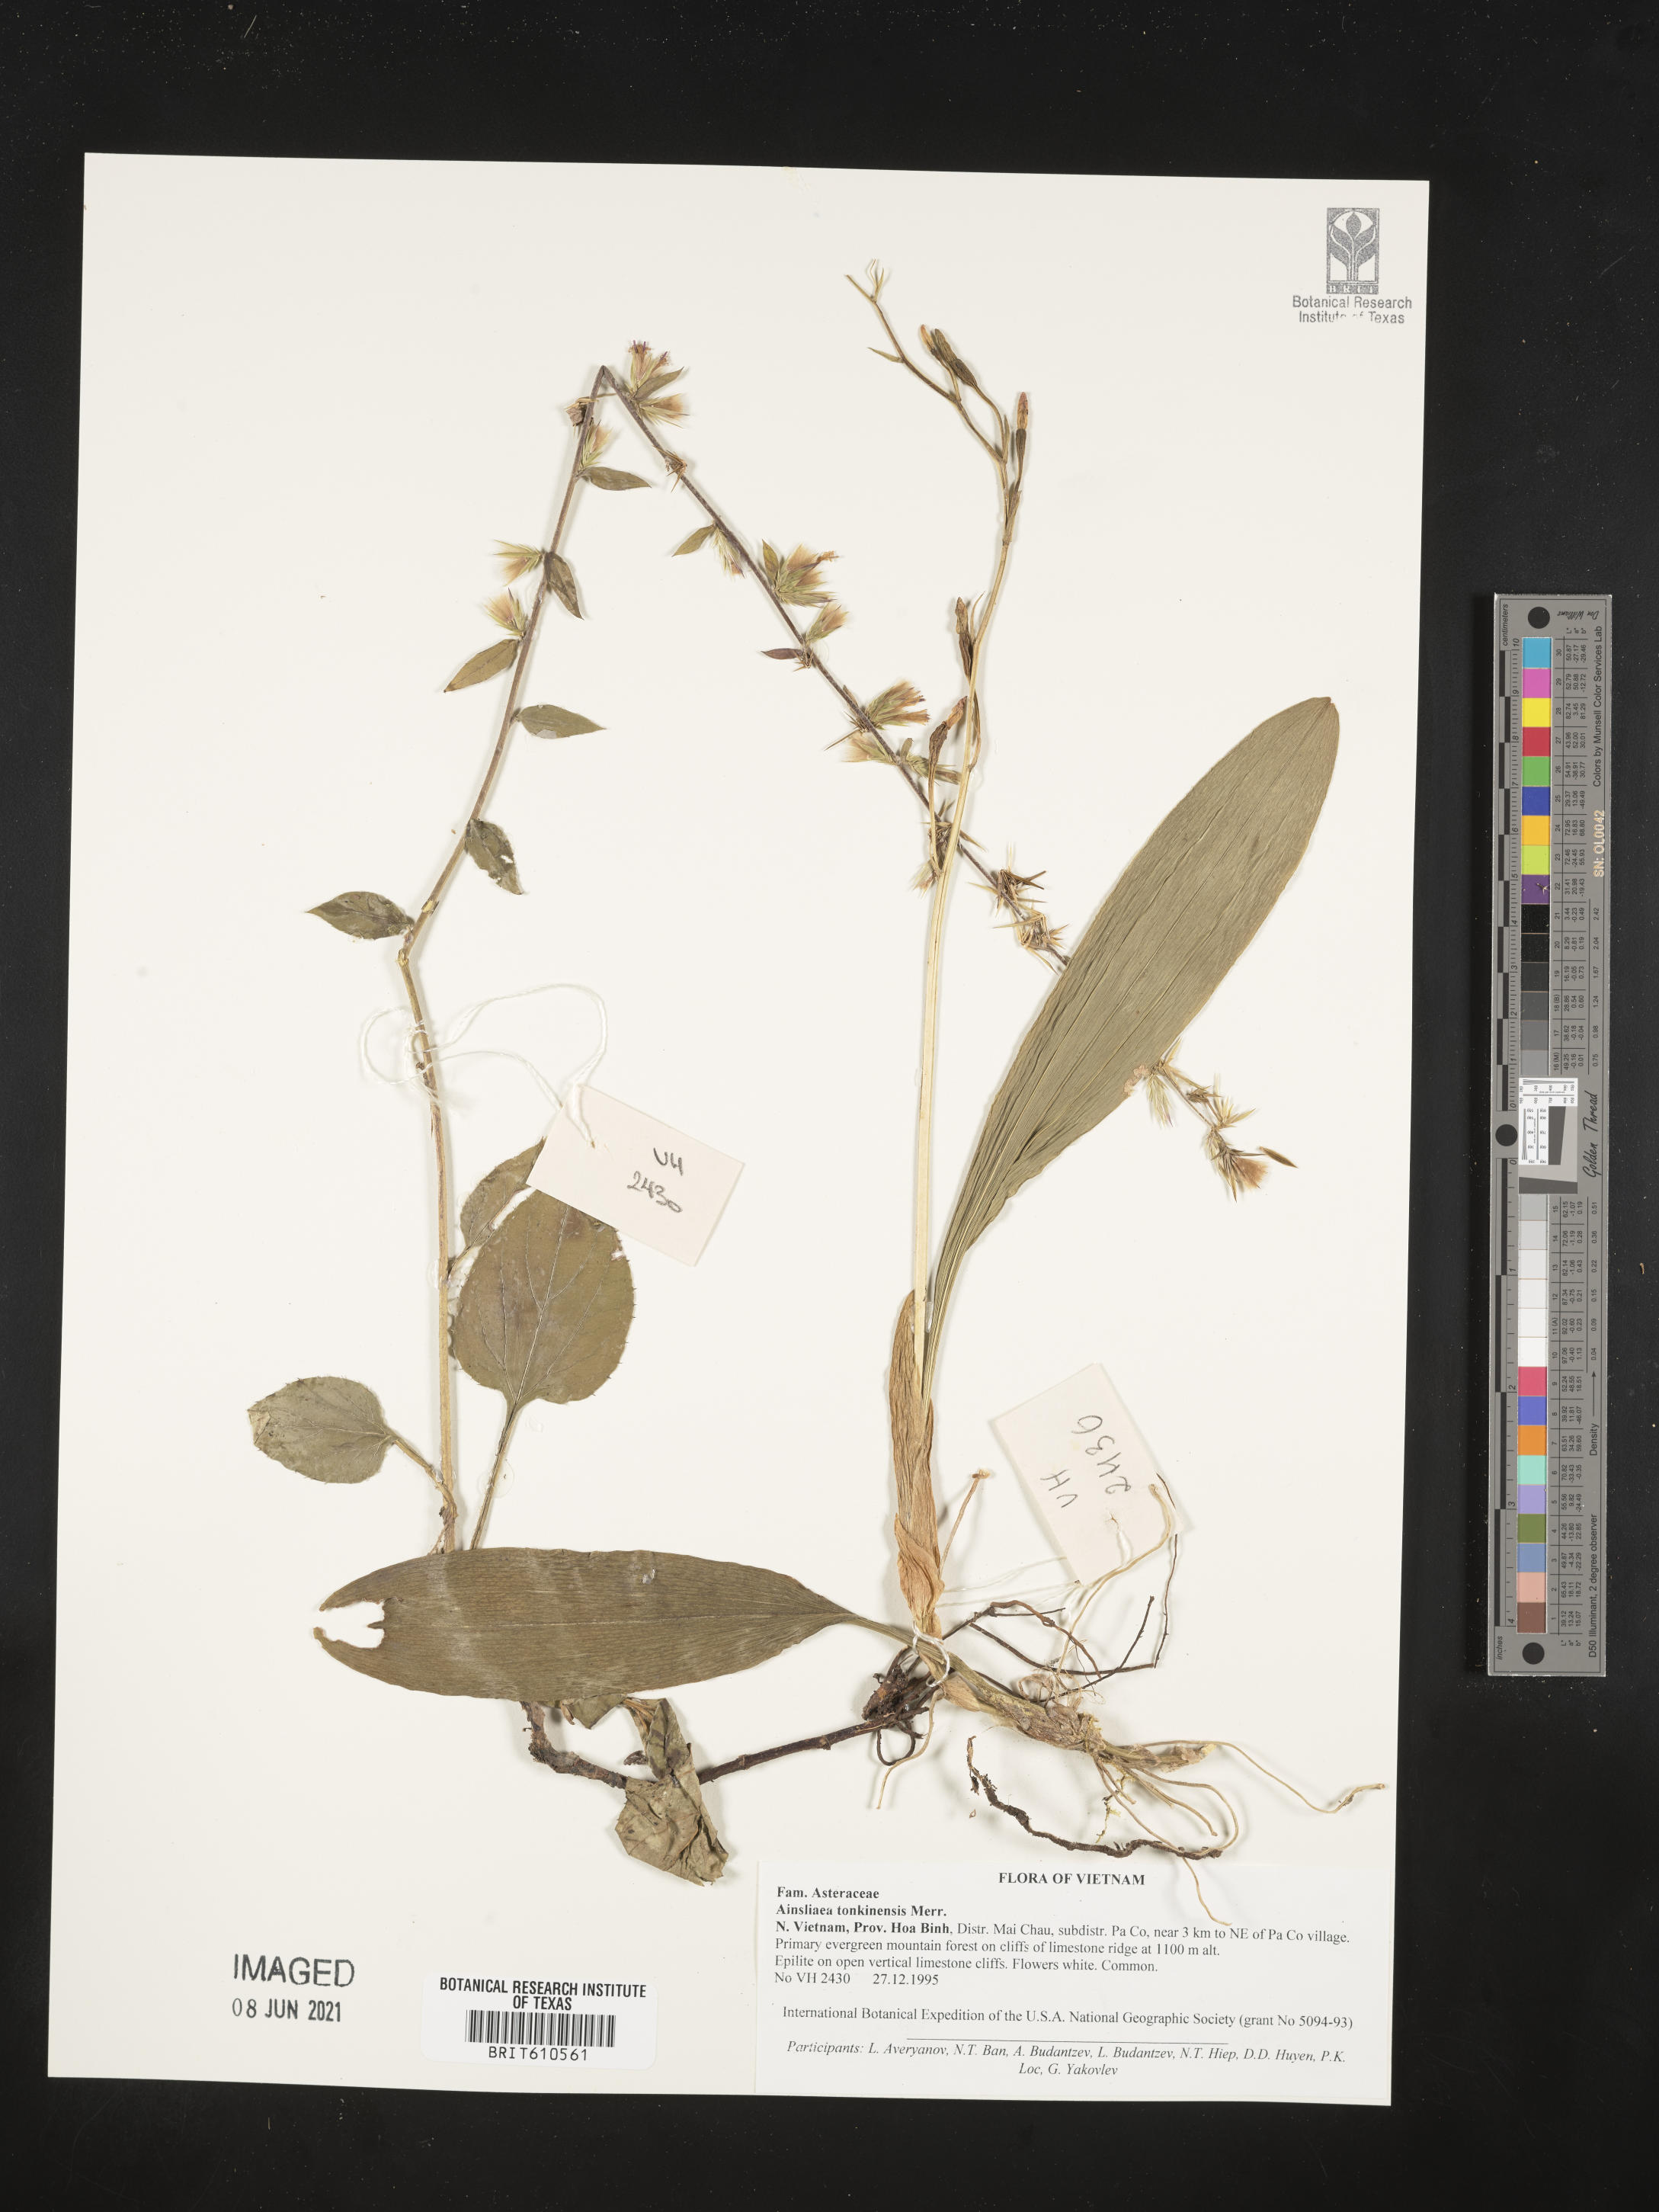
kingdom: Plantae
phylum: Tracheophyta
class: Magnoliopsida
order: Asterales
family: Asteraceae
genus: Ainsliaea
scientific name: Ainsliaea reflexa
